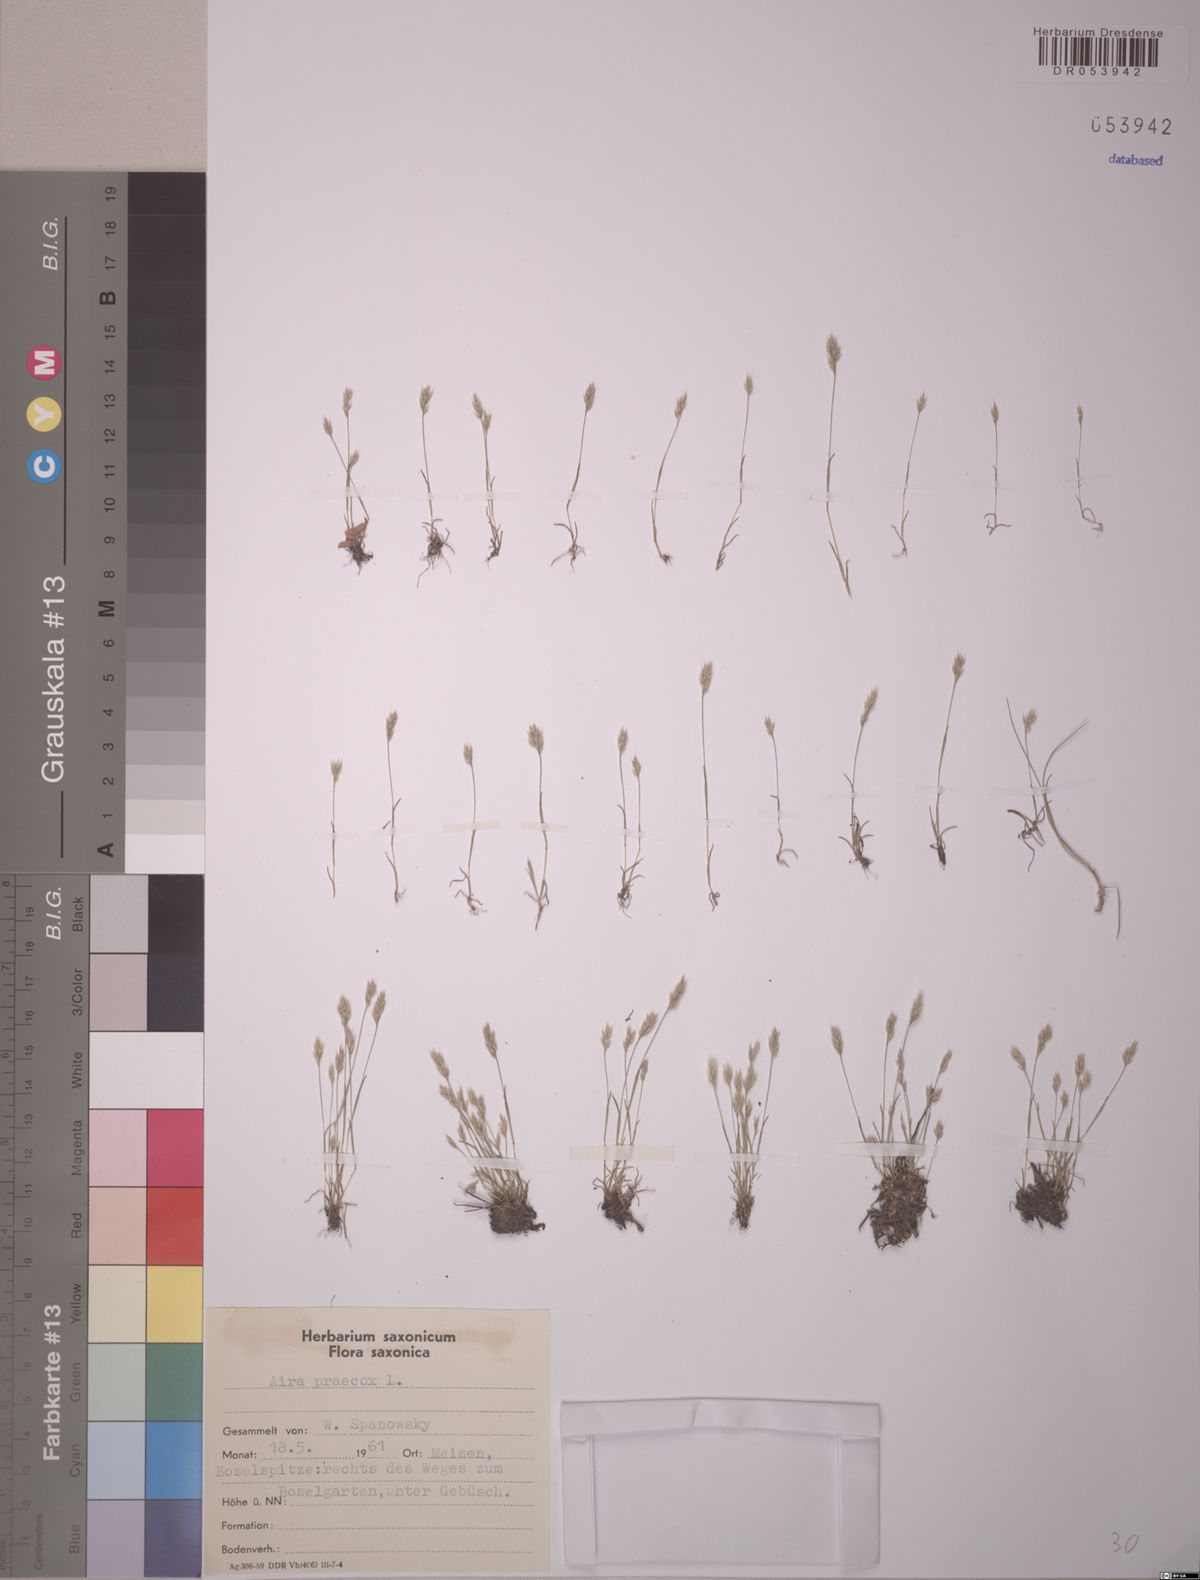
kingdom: Plantae
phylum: Tracheophyta
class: Liliopsida
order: Poales
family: Poaceae
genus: Aira
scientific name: Aira praecox
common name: Early hair-grass
